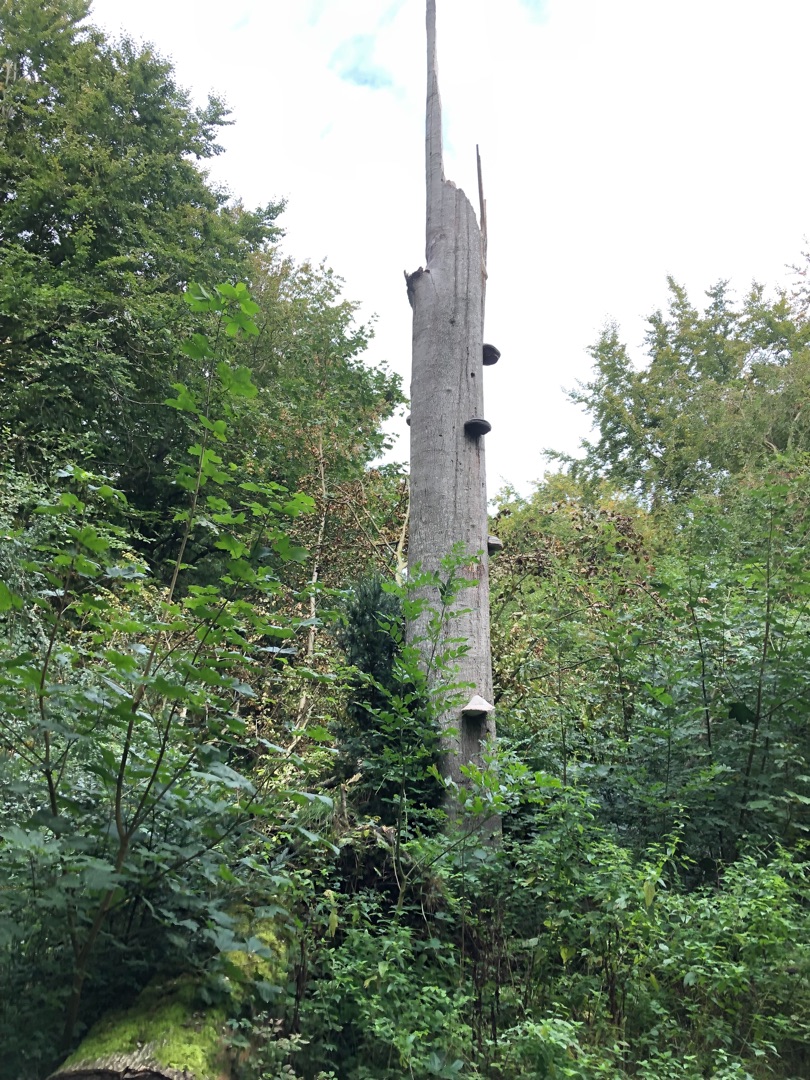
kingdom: Fungi
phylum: Basidiomycota
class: Agaricomycetes
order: Polyporales
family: Polyporaceae
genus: Fomes
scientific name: Fomes fomentarius
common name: Tøndersvamp
